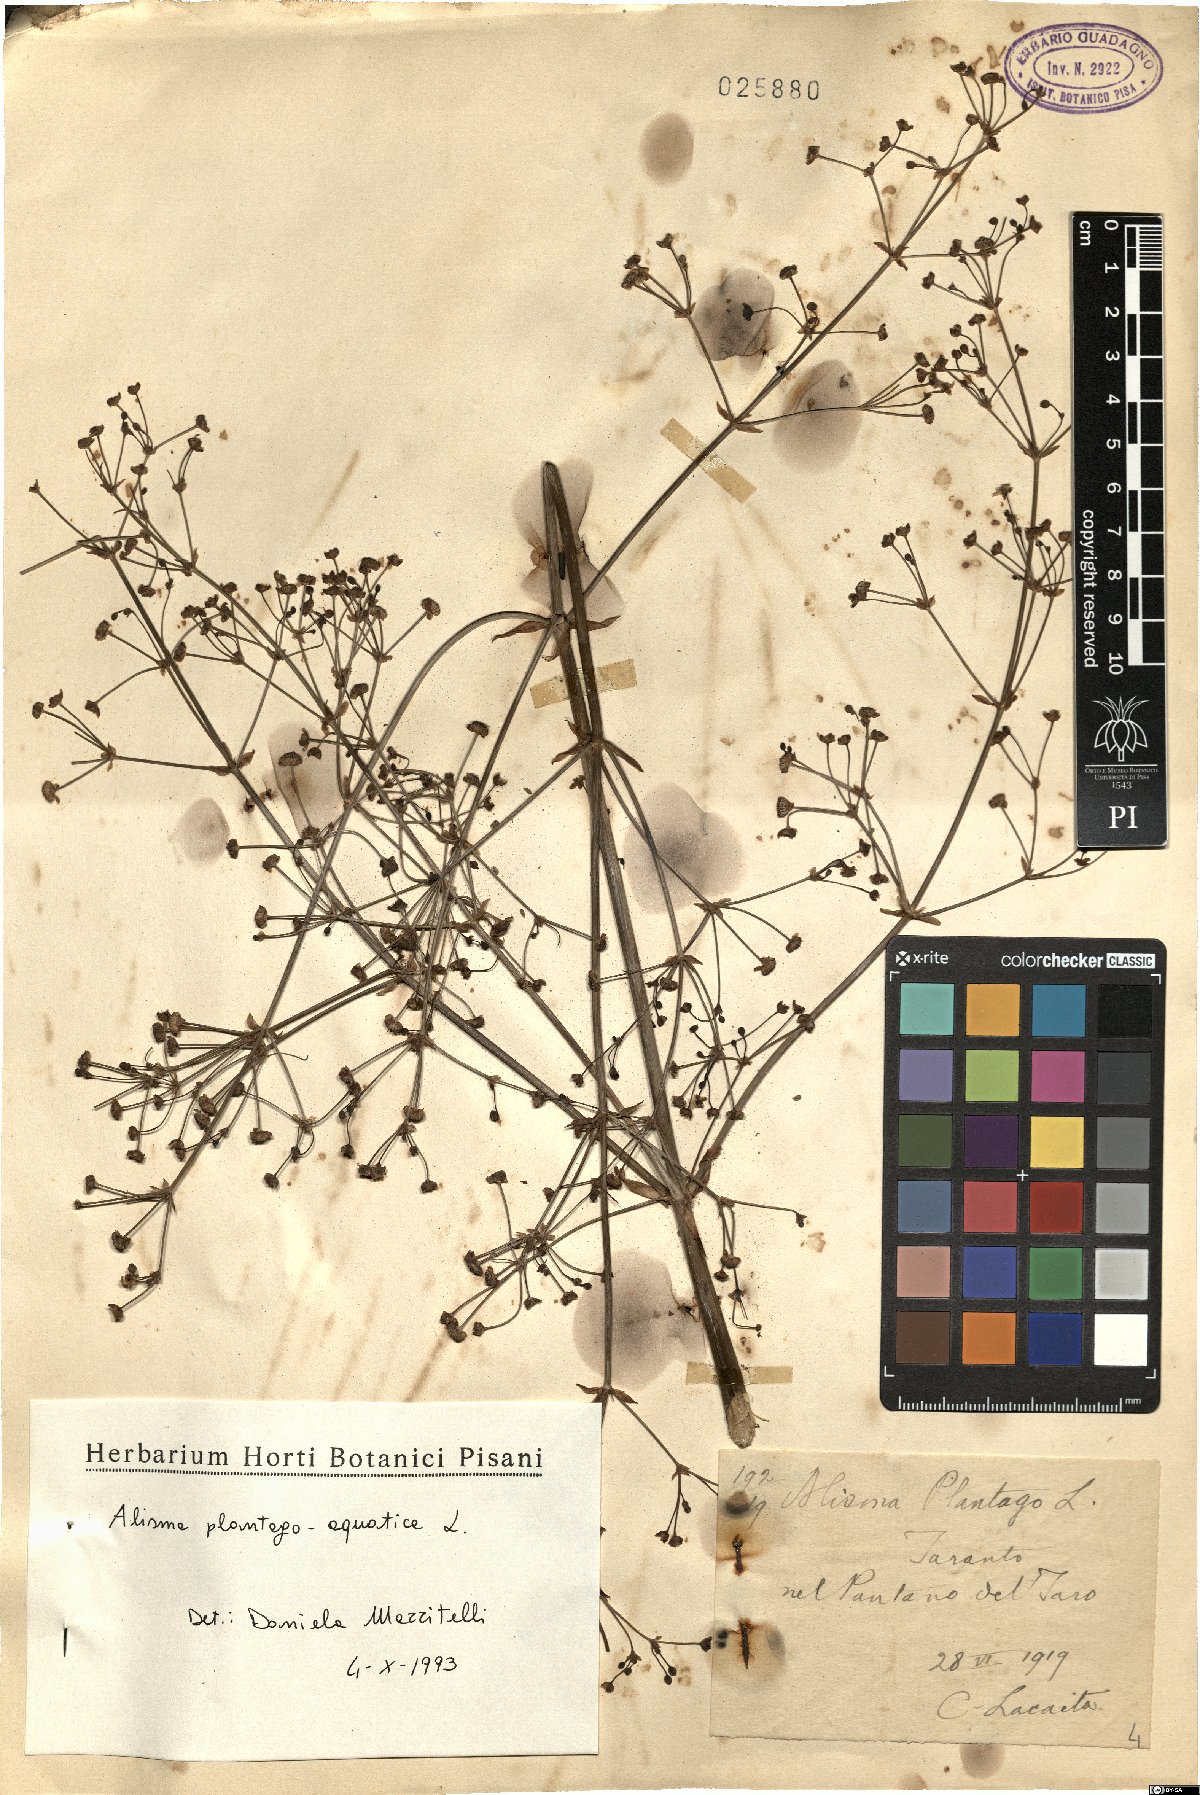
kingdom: Plantae
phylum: Tracheophyta
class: Liliopsida
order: Alismatales
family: Alismataceae
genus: Alisma
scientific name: Alisma plantago-aquatica
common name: Water-plantain
